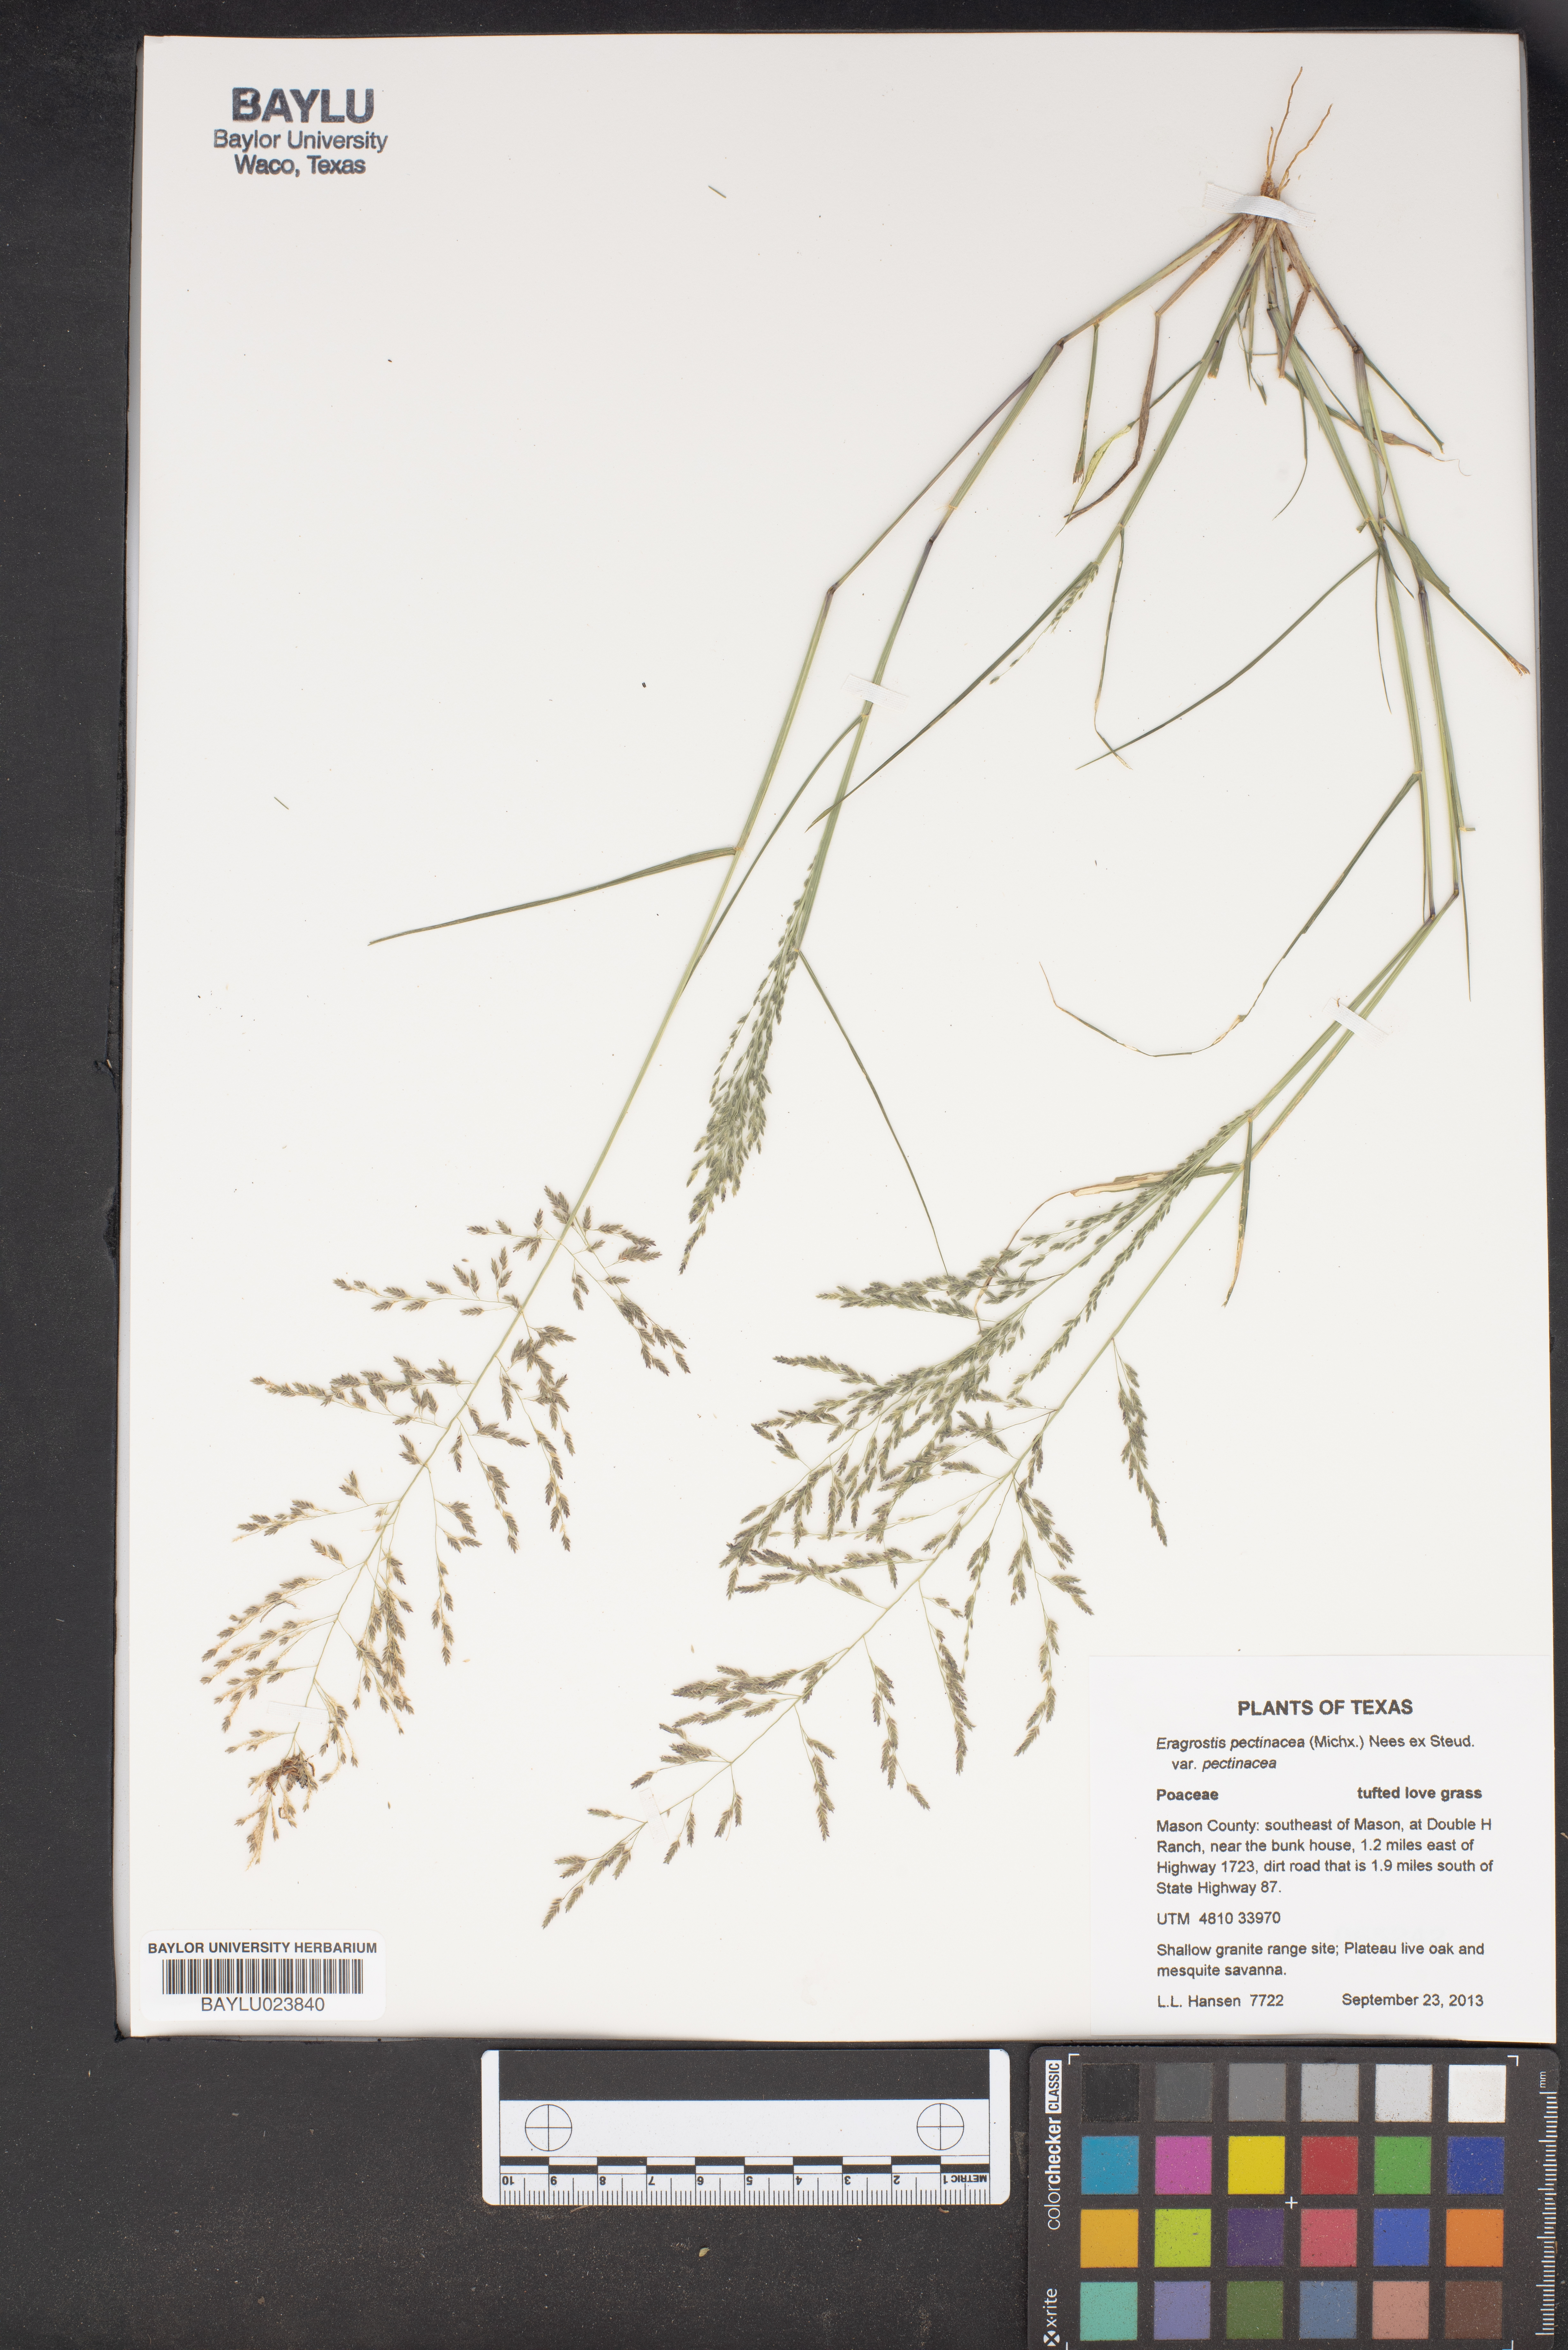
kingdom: Plantae
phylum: Tracheophyta
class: Liliopsida
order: Poales
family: Poaceae
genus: Eragrostis
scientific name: Eragrostis pectinacea
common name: Tufted lovegrass
